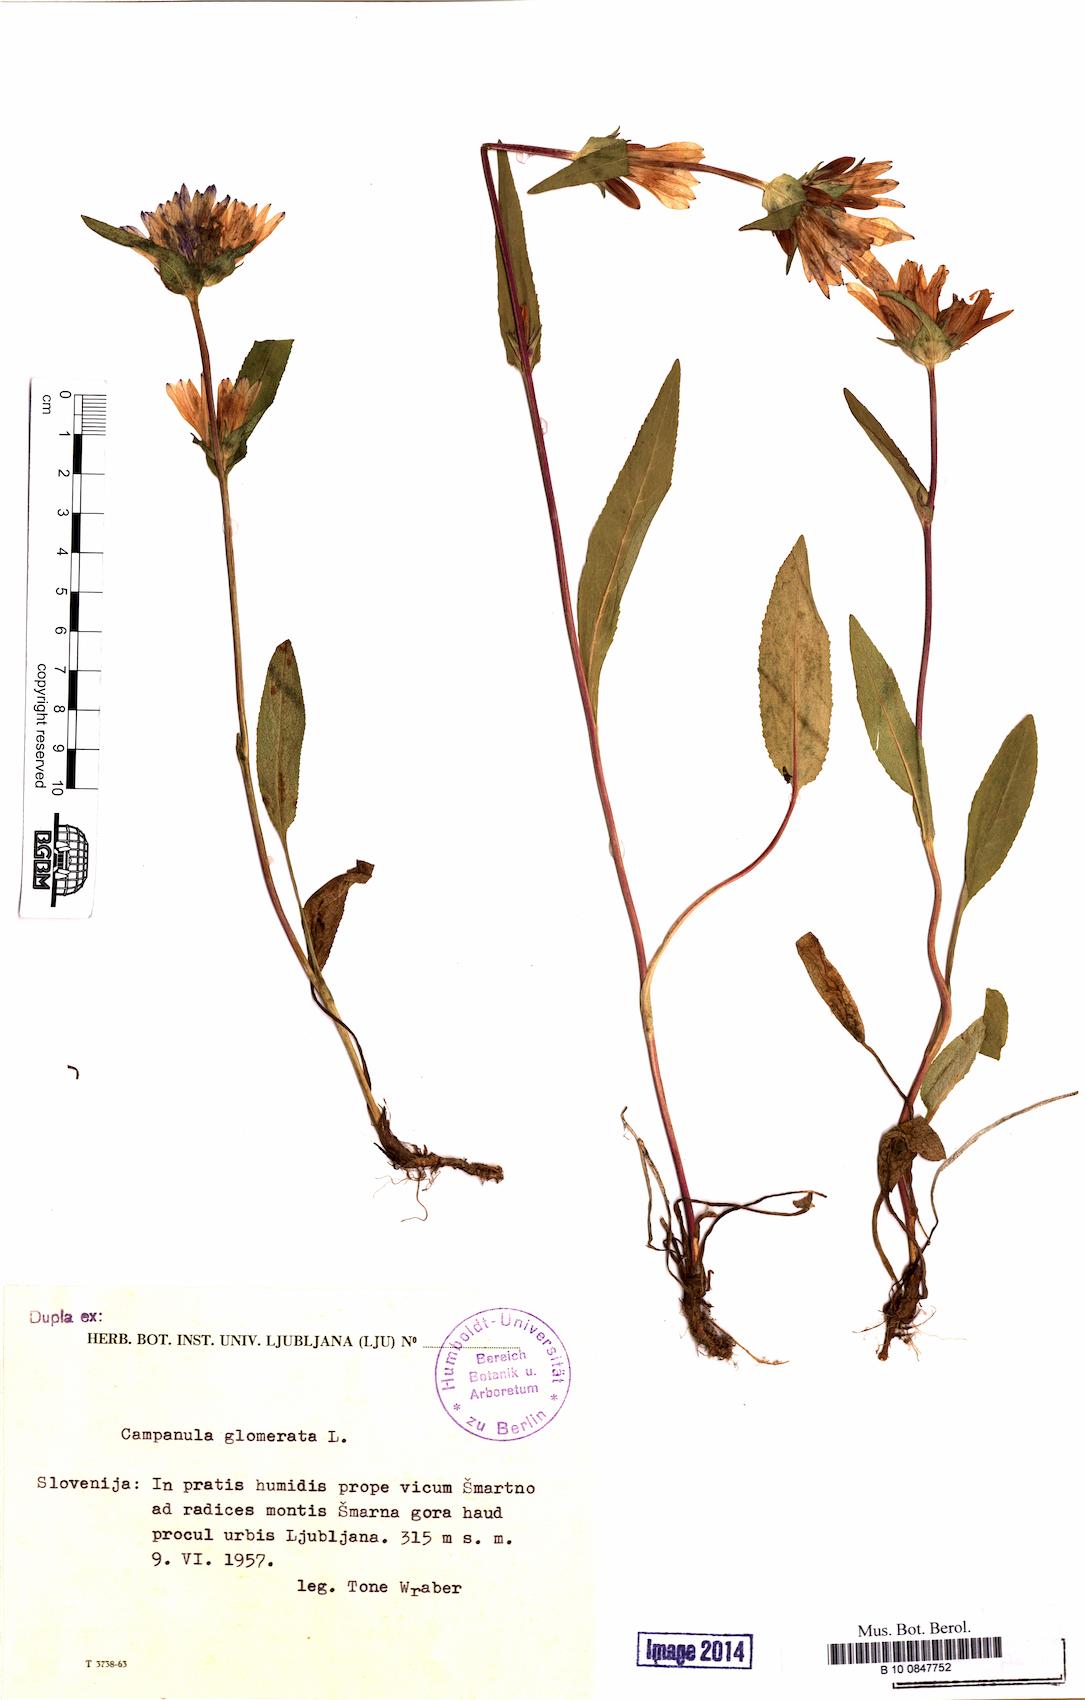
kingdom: Plantae
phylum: Tracheophyta
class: Magnoliopsida
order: Asterales
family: Campanulaceae
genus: Campanula
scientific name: Campanula glomerata
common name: Clustered bellflower
